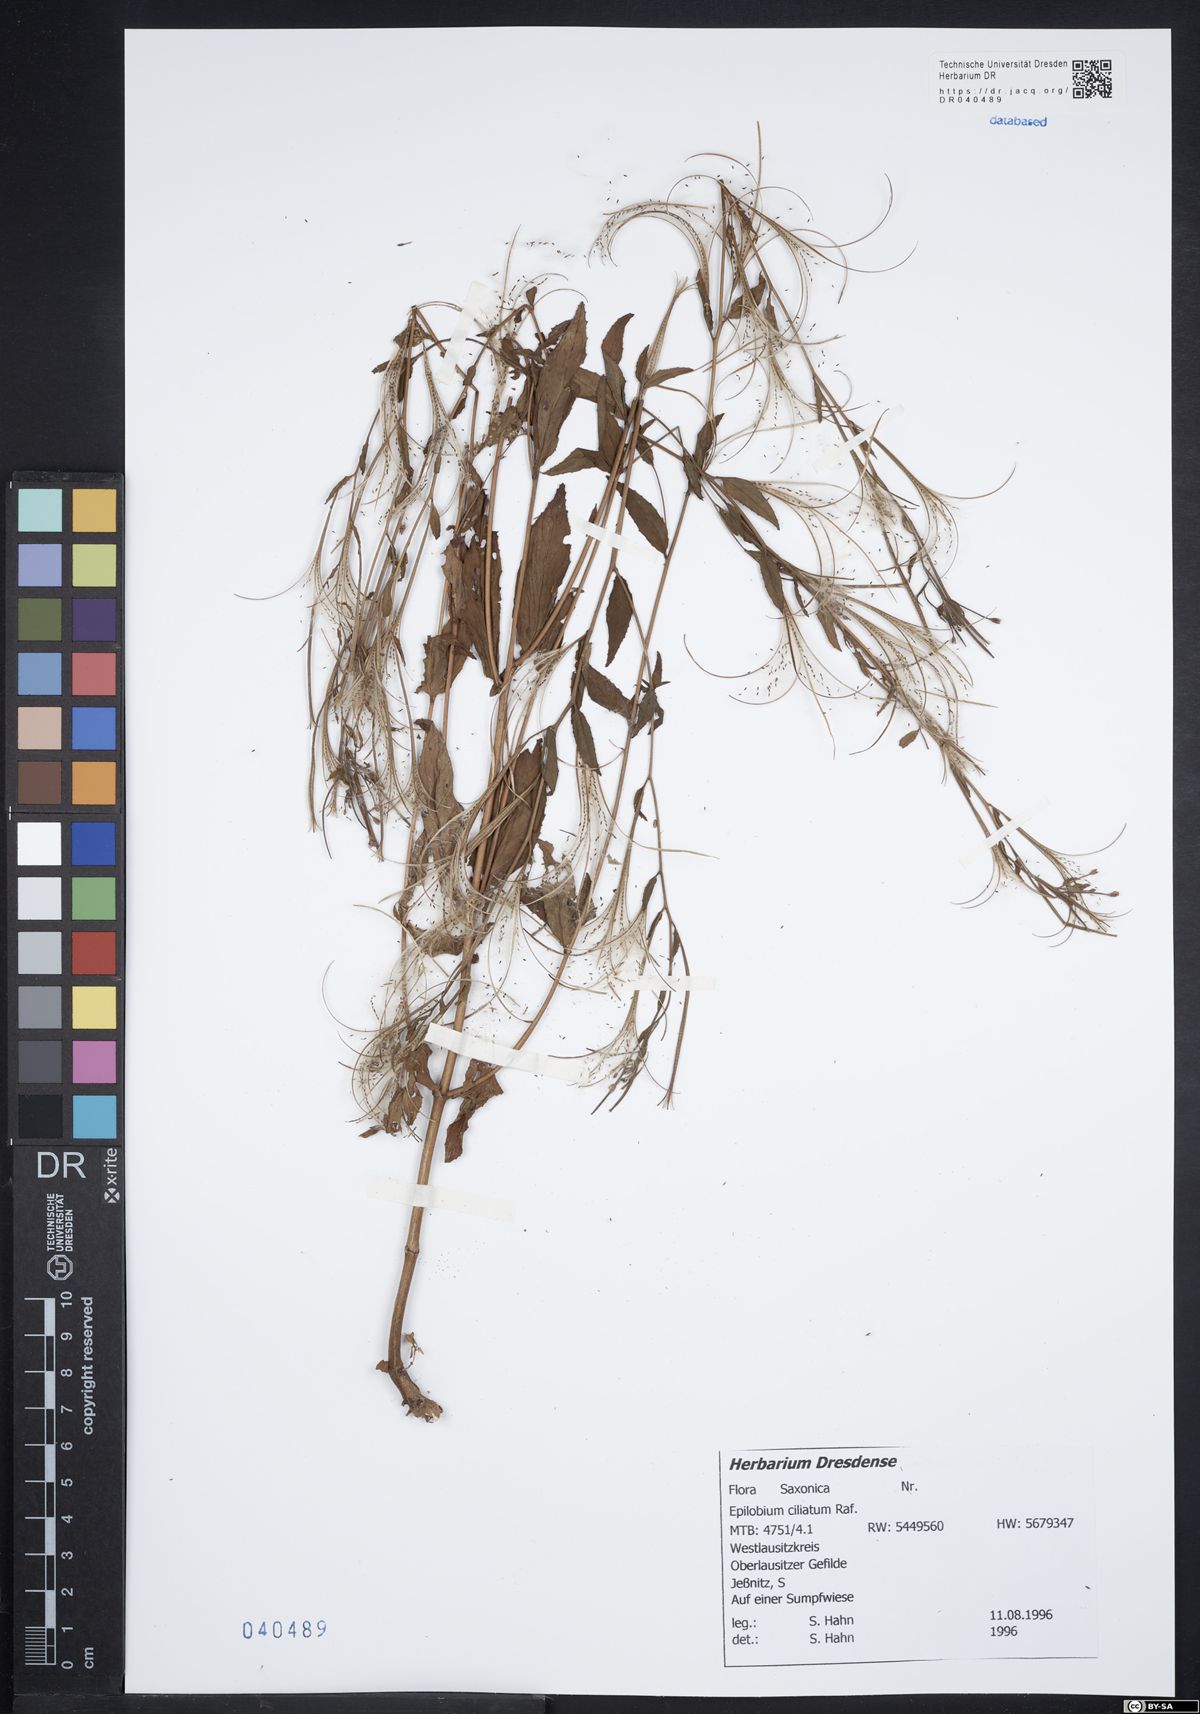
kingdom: Plantae
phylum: Tracheophyta
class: Magnoliopsida
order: Myrtales
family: Onagraceae
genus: Epilobium
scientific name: Epilobium ciliatum
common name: American willowherb
